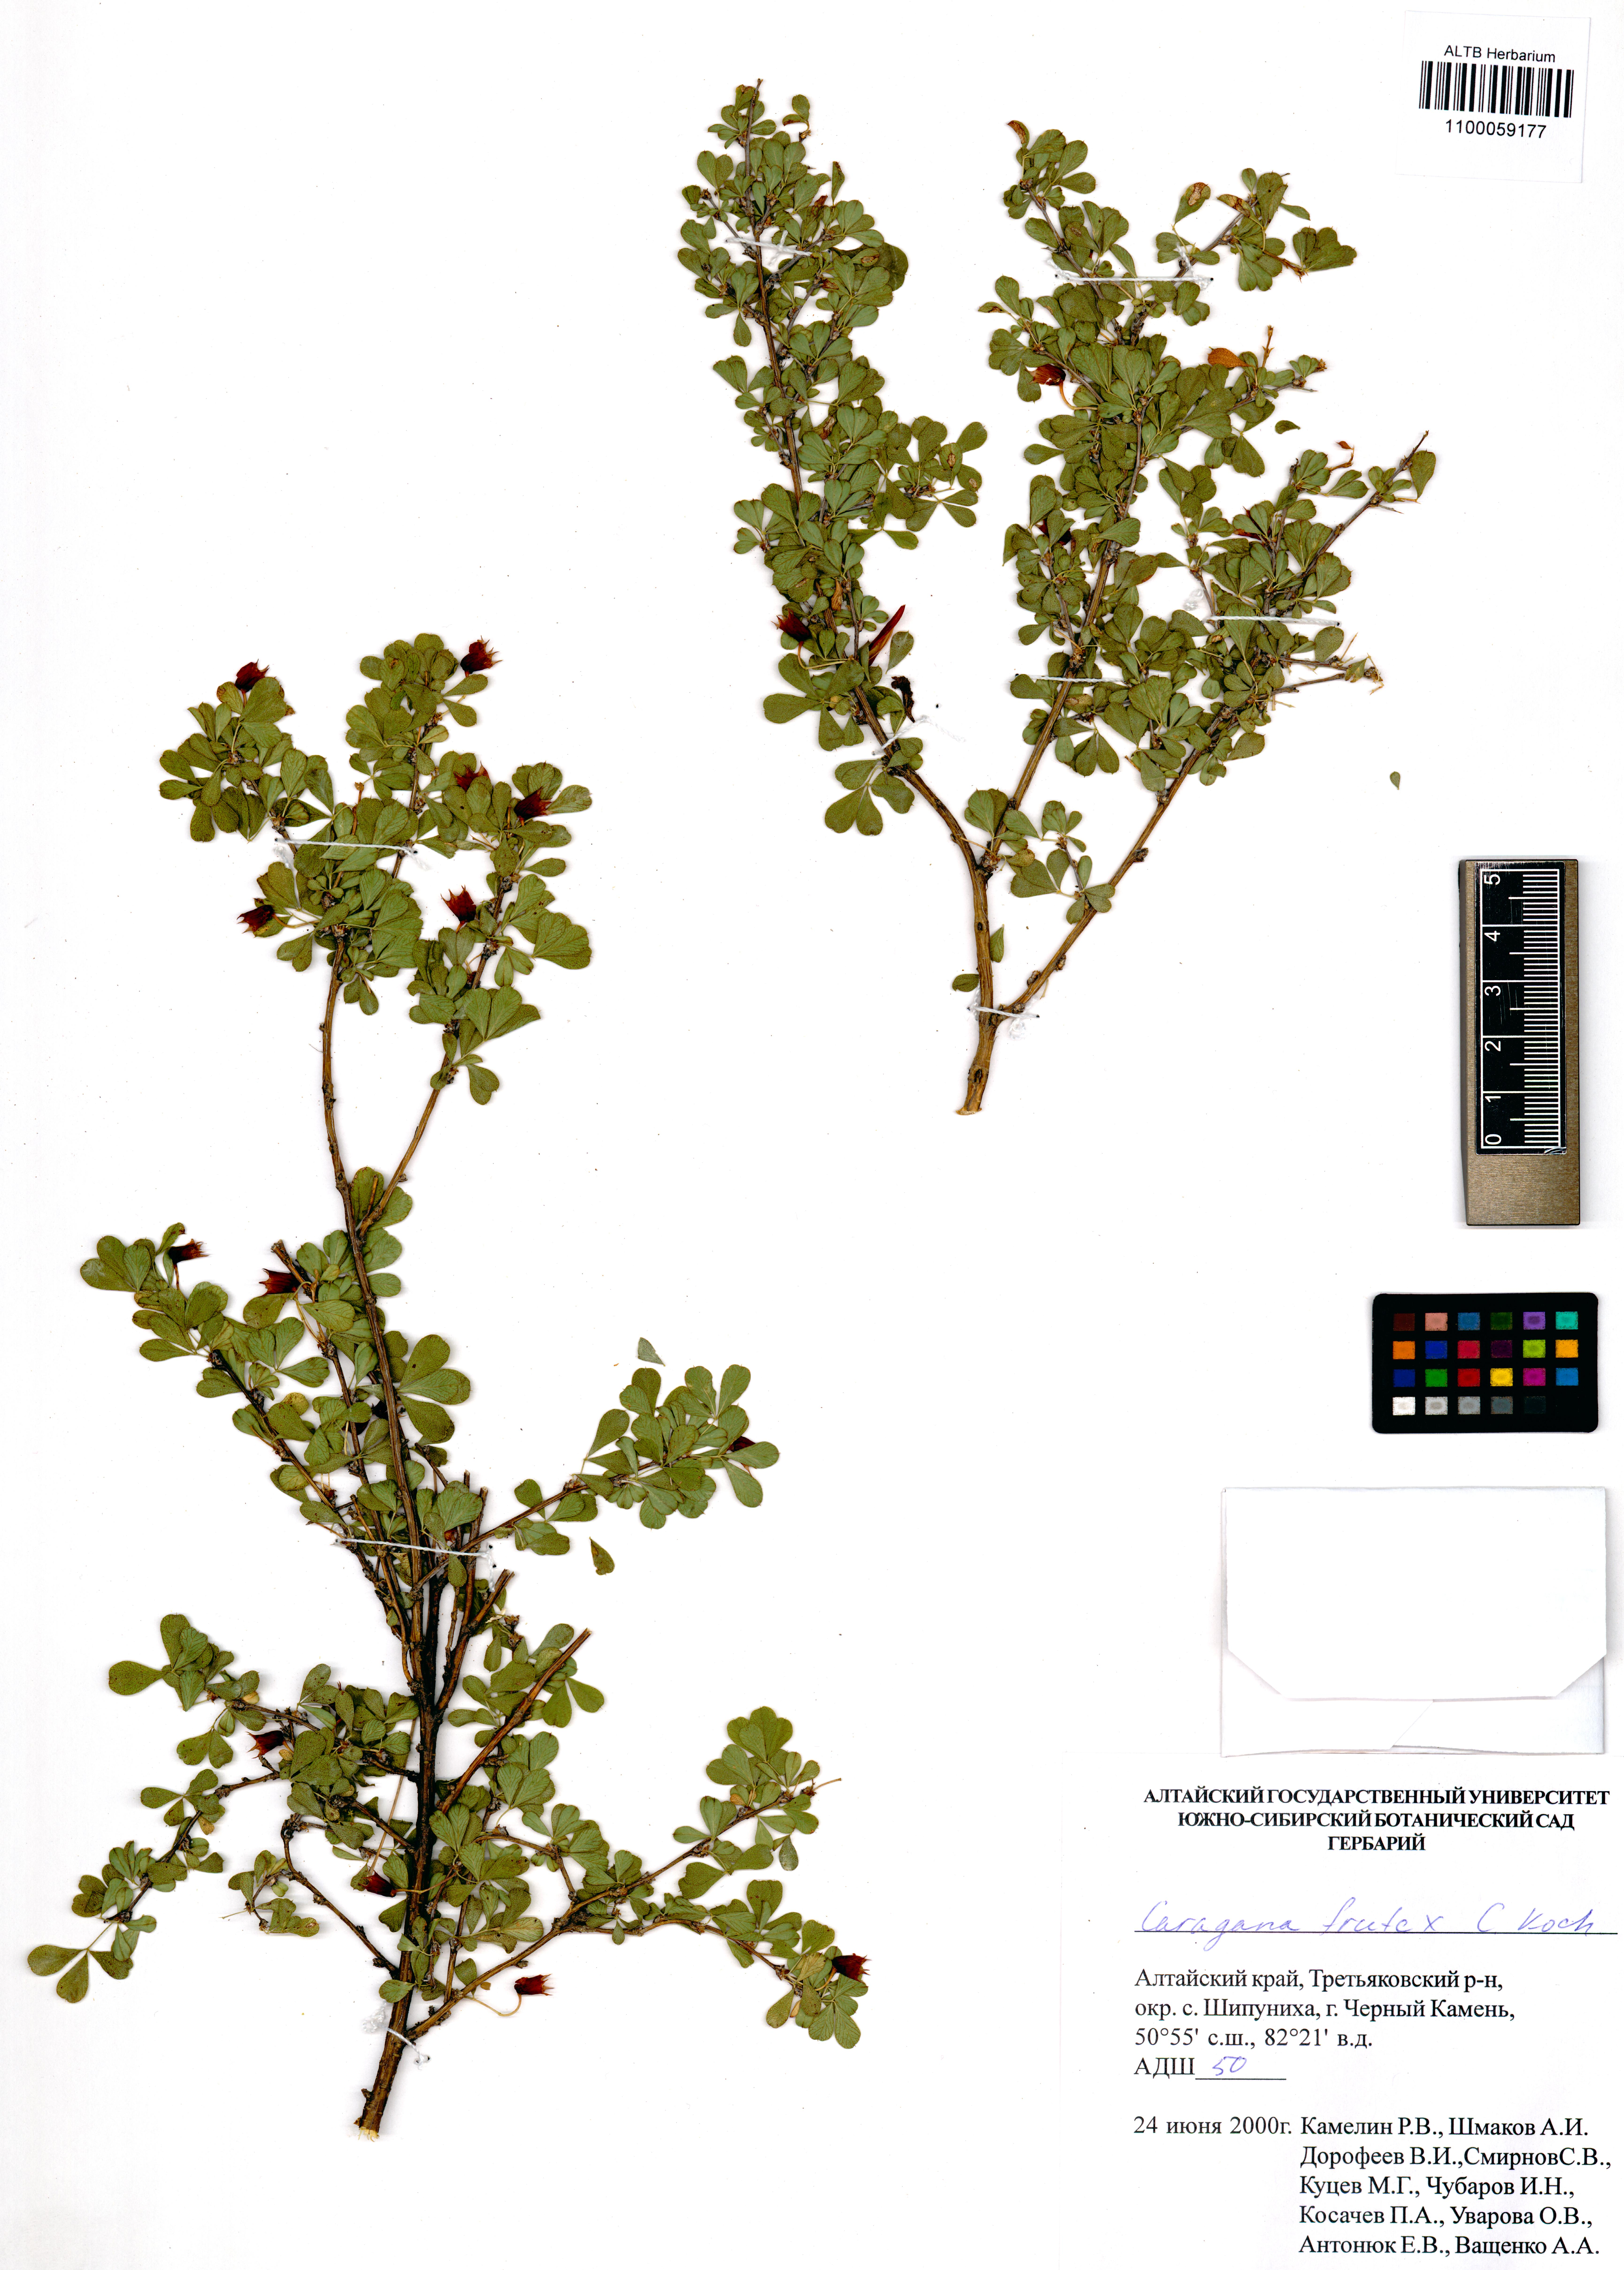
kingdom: Plantae
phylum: Tracheophyta
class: Magnoliopsida
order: Fabales
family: Fabaceae
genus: Caragana
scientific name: Caragana frutex
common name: Russian peashrub
